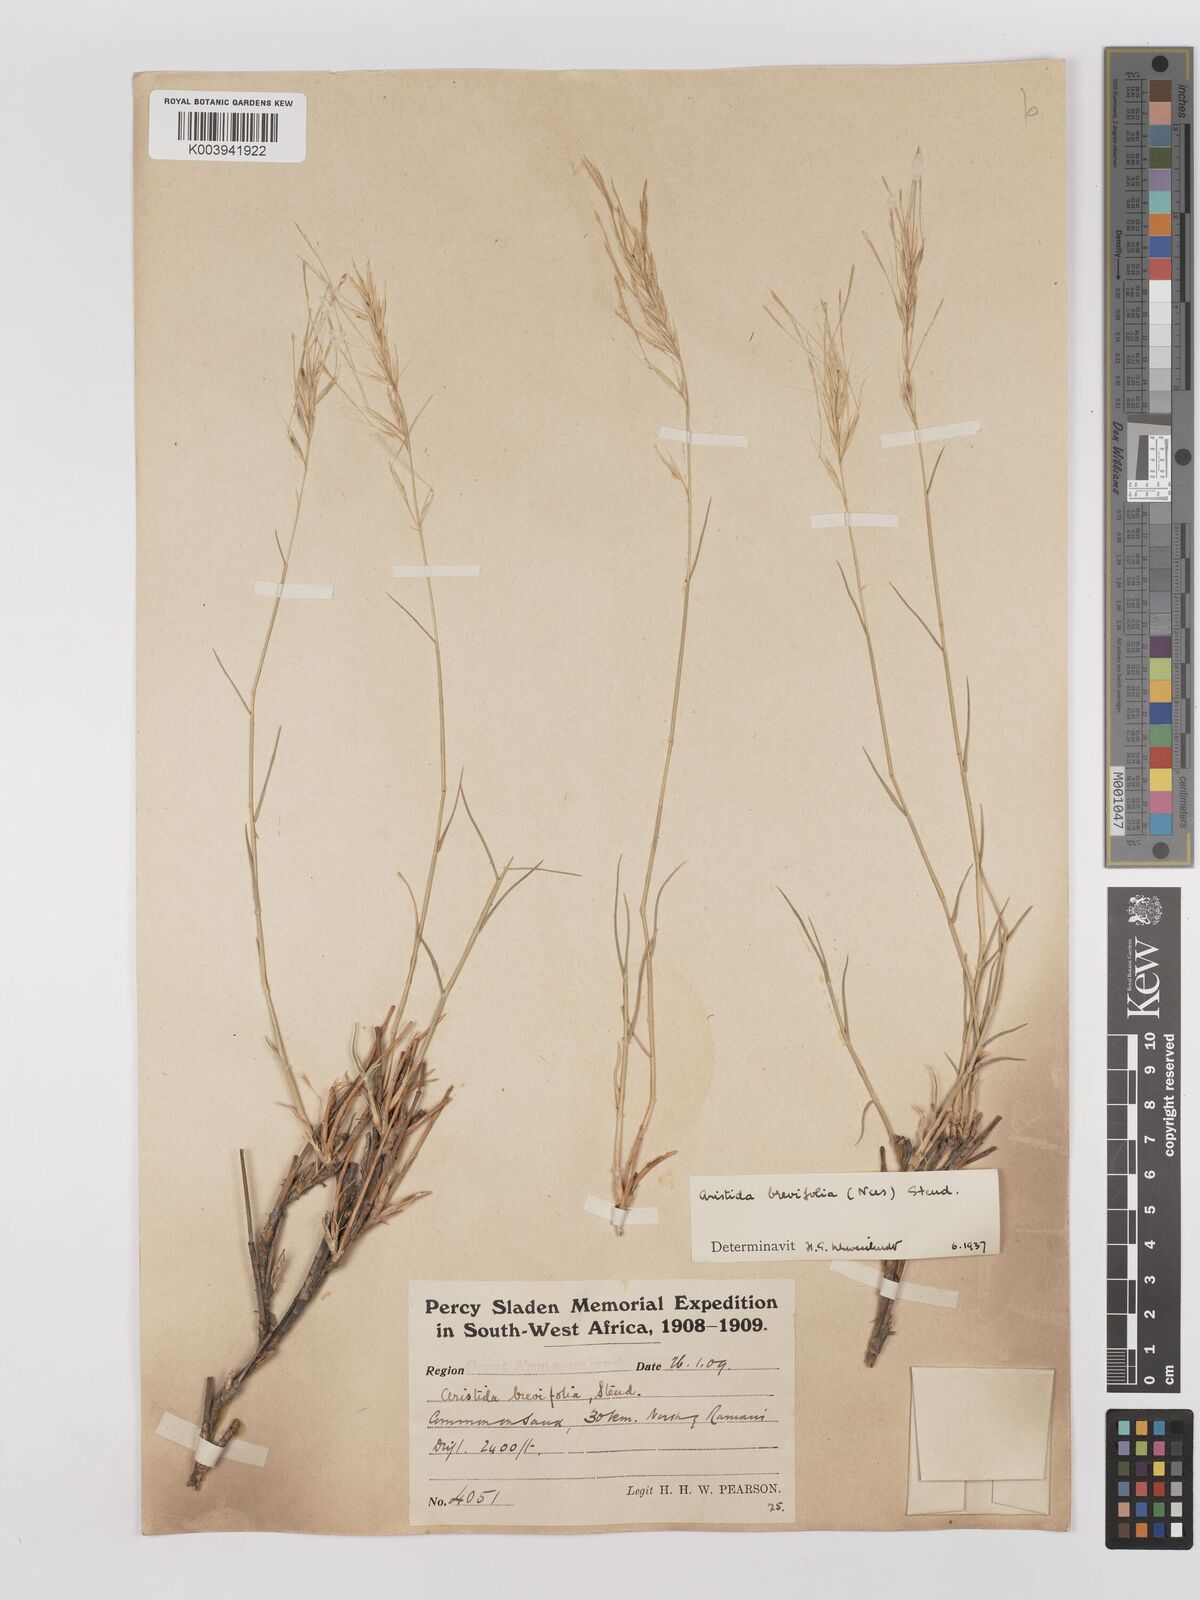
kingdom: Plantae
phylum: Tracheophyta
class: Liliopsida
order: Poales
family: Poaceae
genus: Stipagrostis
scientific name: Stipagrostis brevifolia
